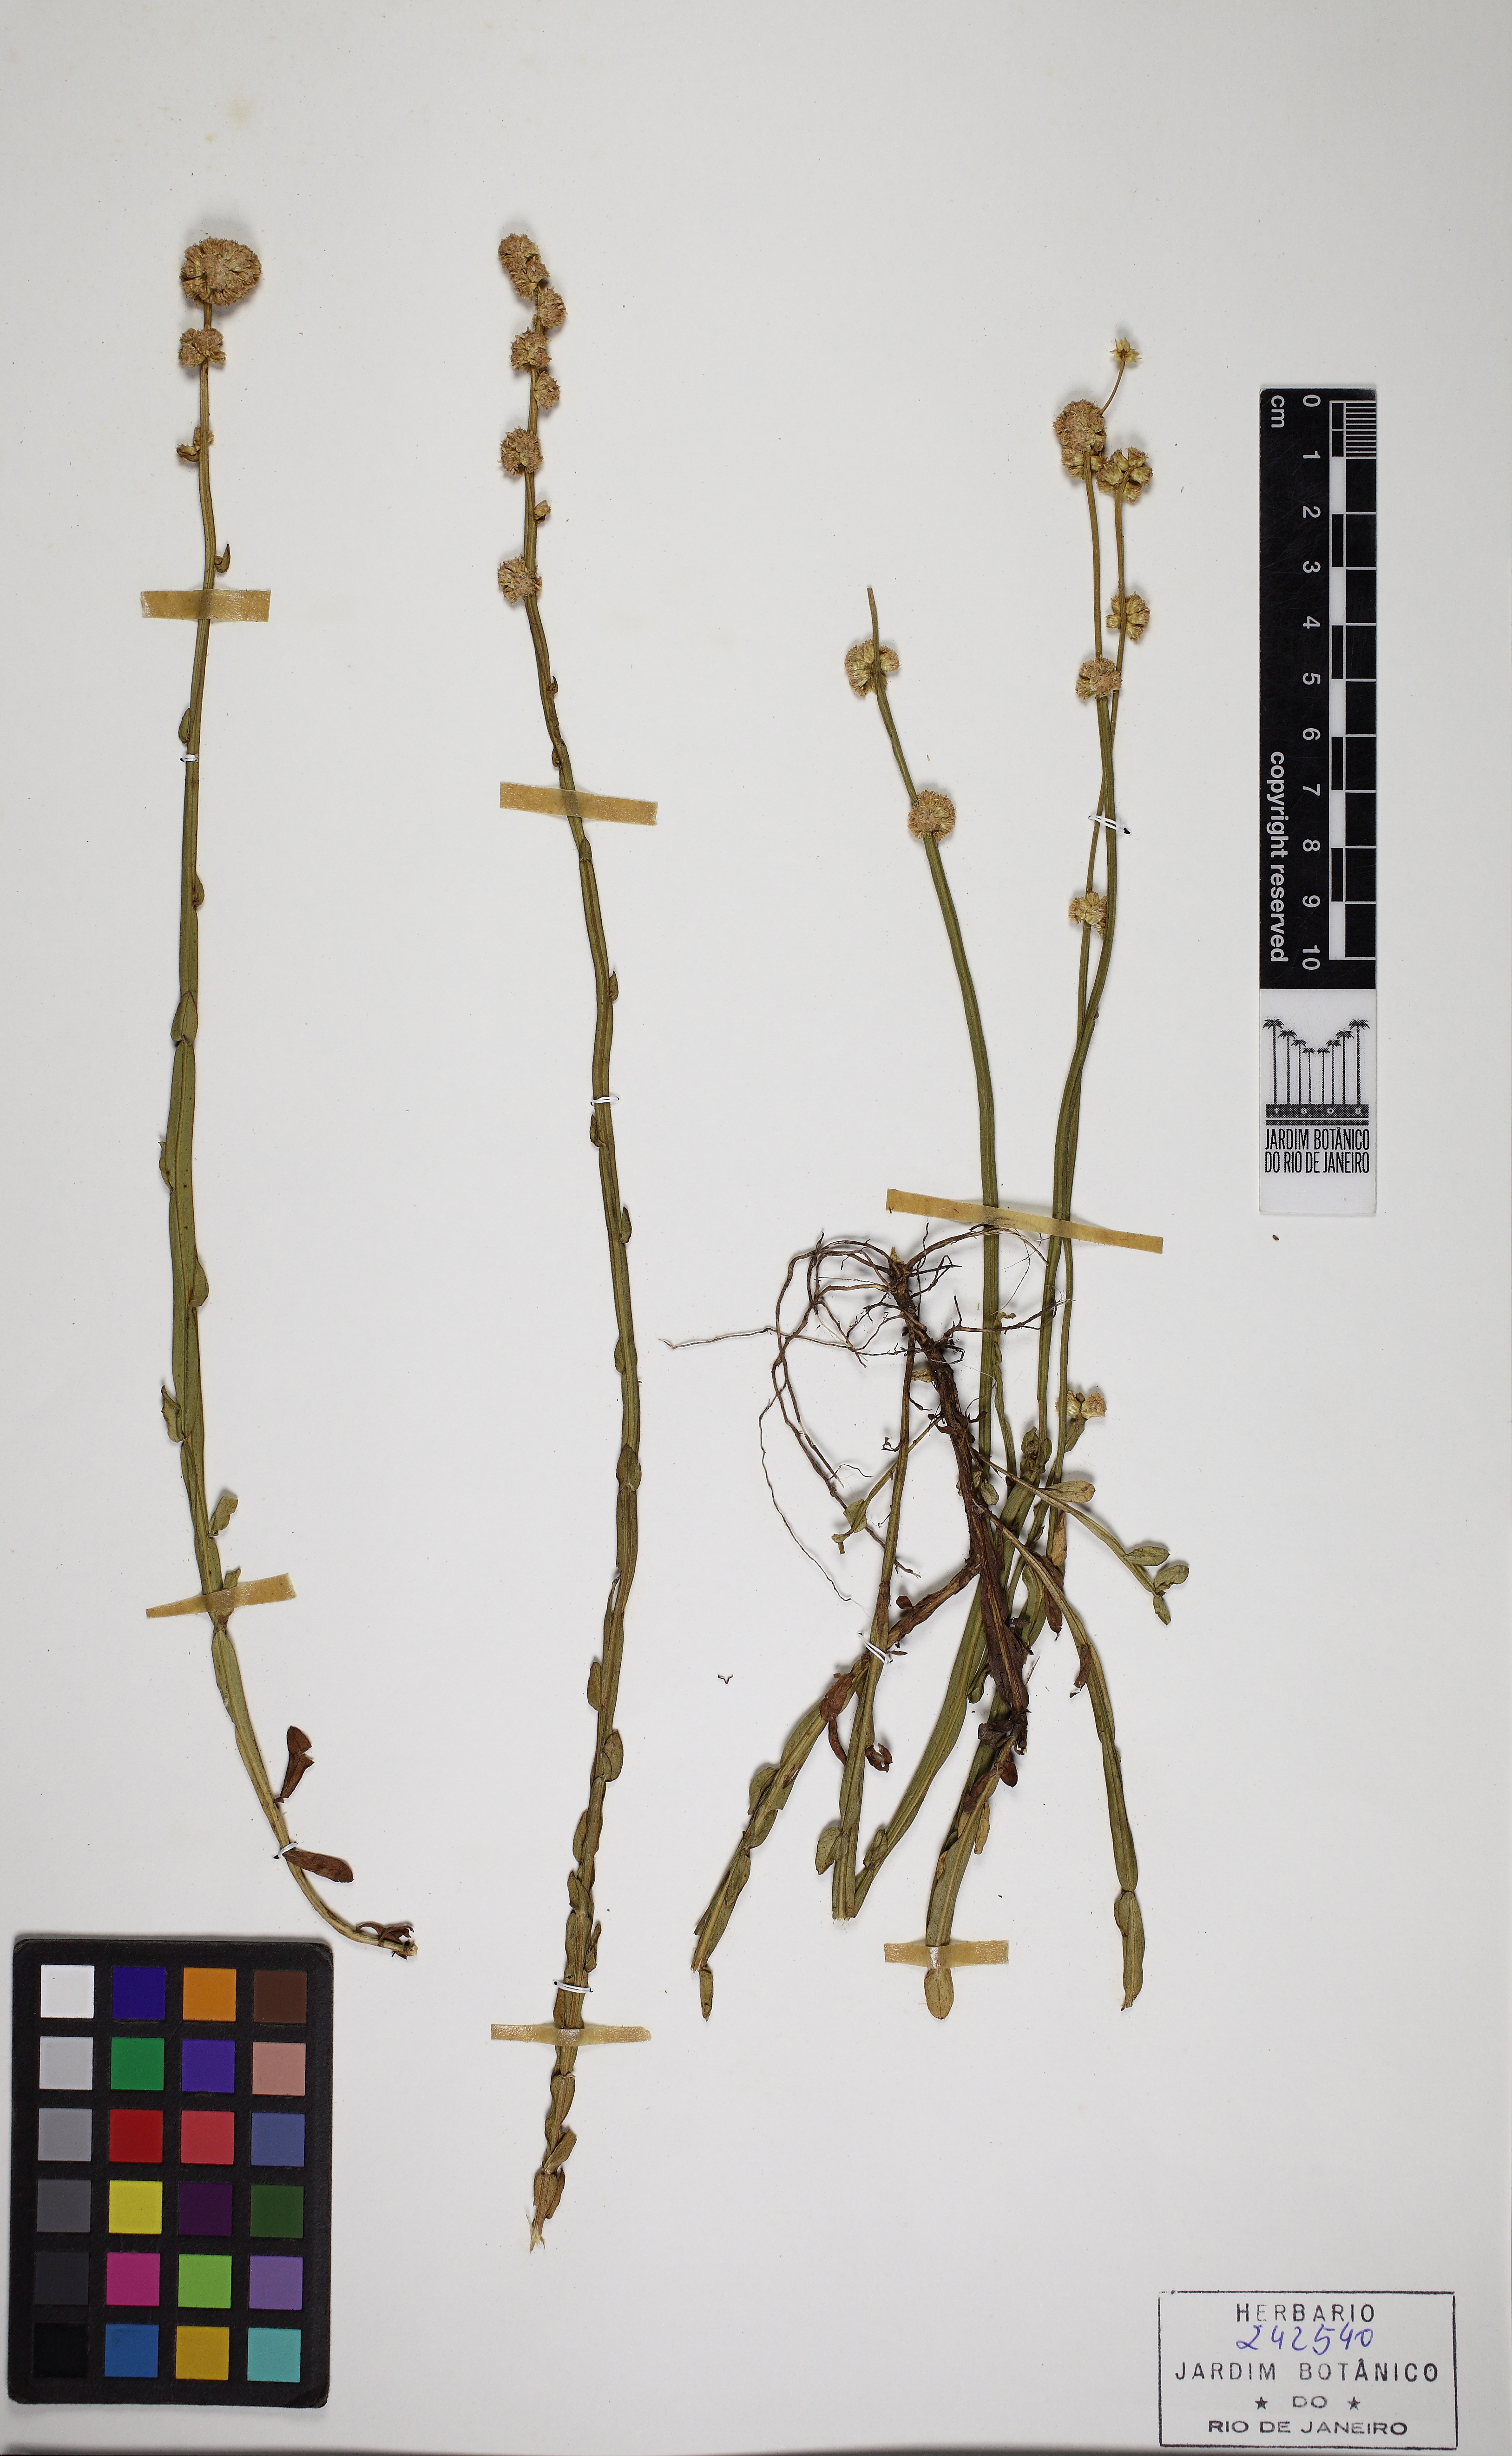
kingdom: Plantae
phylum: Tracheophyta
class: Magnoliopsida
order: Asterales
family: Asteraceae
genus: Baccharis
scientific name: Baccharis subtropicalis
